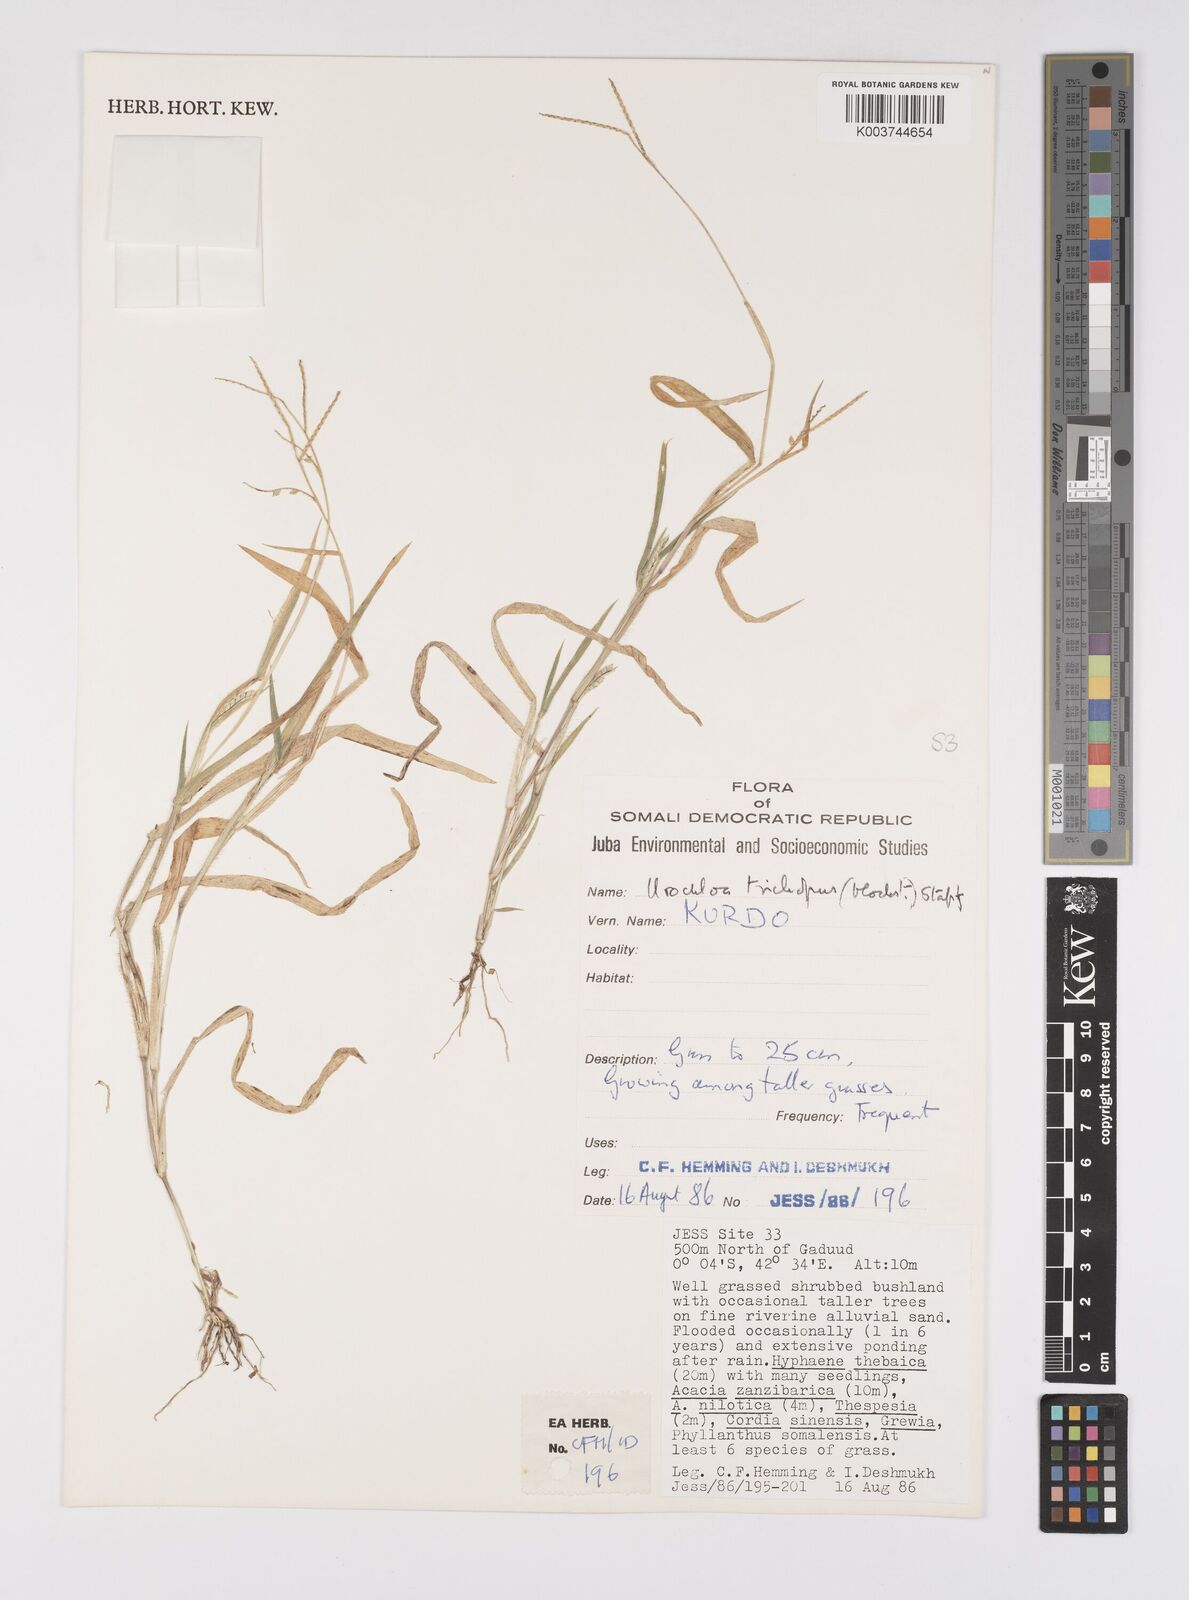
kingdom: Plantae
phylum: Tracheophyta
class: Liliopsida
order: Poales
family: Poaceae
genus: Urochloa
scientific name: Urochloa trichopus
